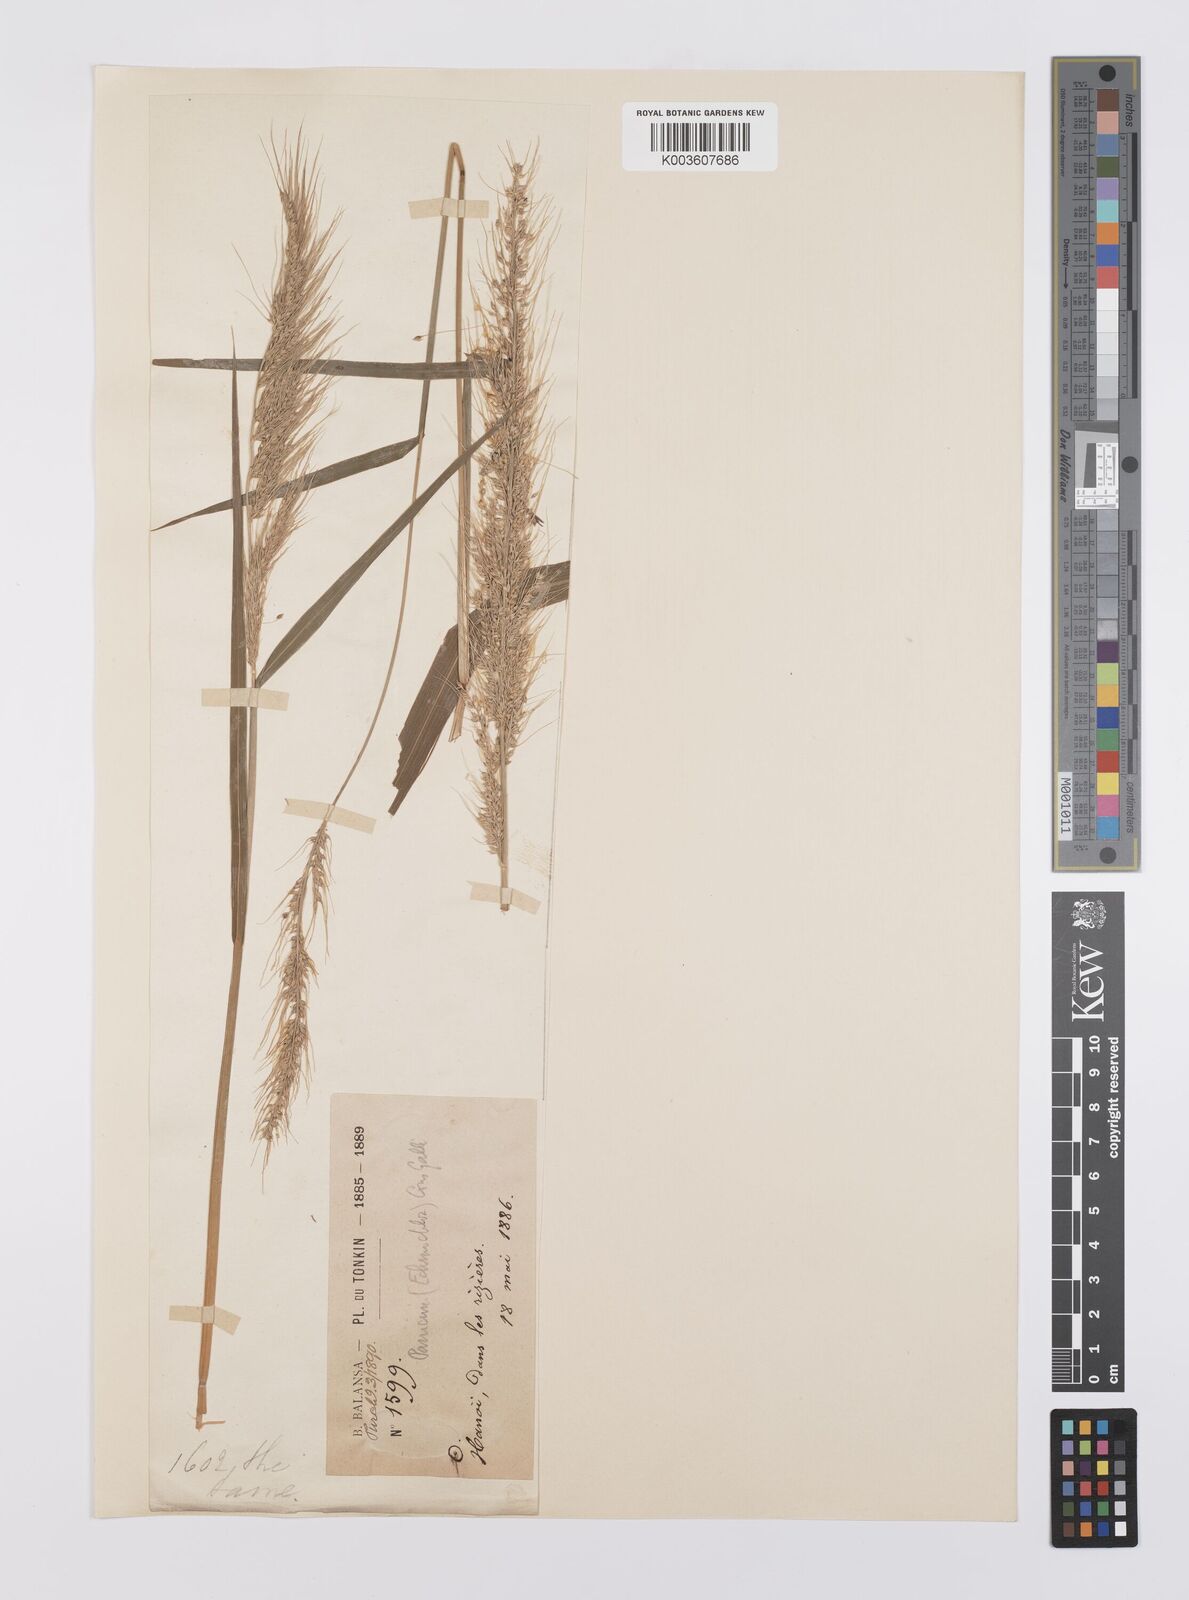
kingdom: Plantae
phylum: Tracheophyta
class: Liliopsida
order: Poales
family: Poaceae
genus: Echinochloa
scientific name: Echinochloa crus-galli
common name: Cockspur
